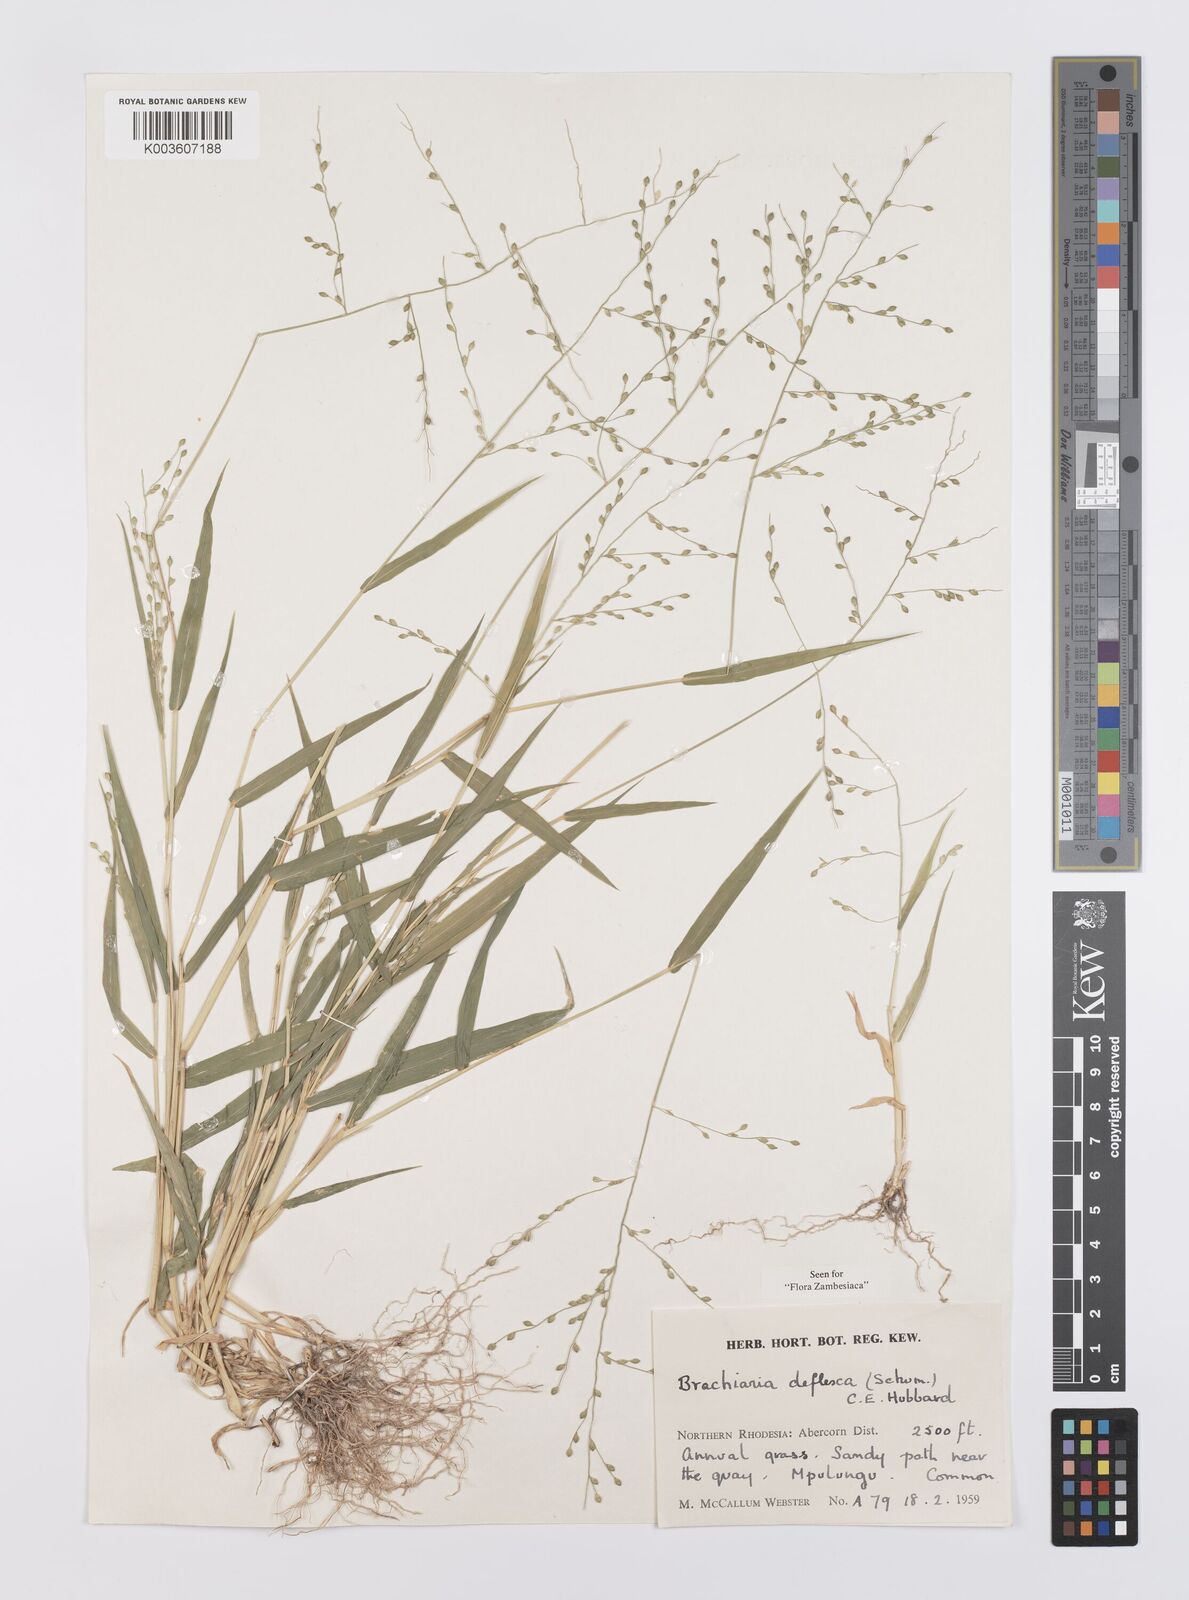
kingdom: Plantae
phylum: Tracheophyta
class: Liliopsida
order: Poales
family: Poaceae
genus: Urochloa
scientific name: Urochloa deflexa
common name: Guinea millet
